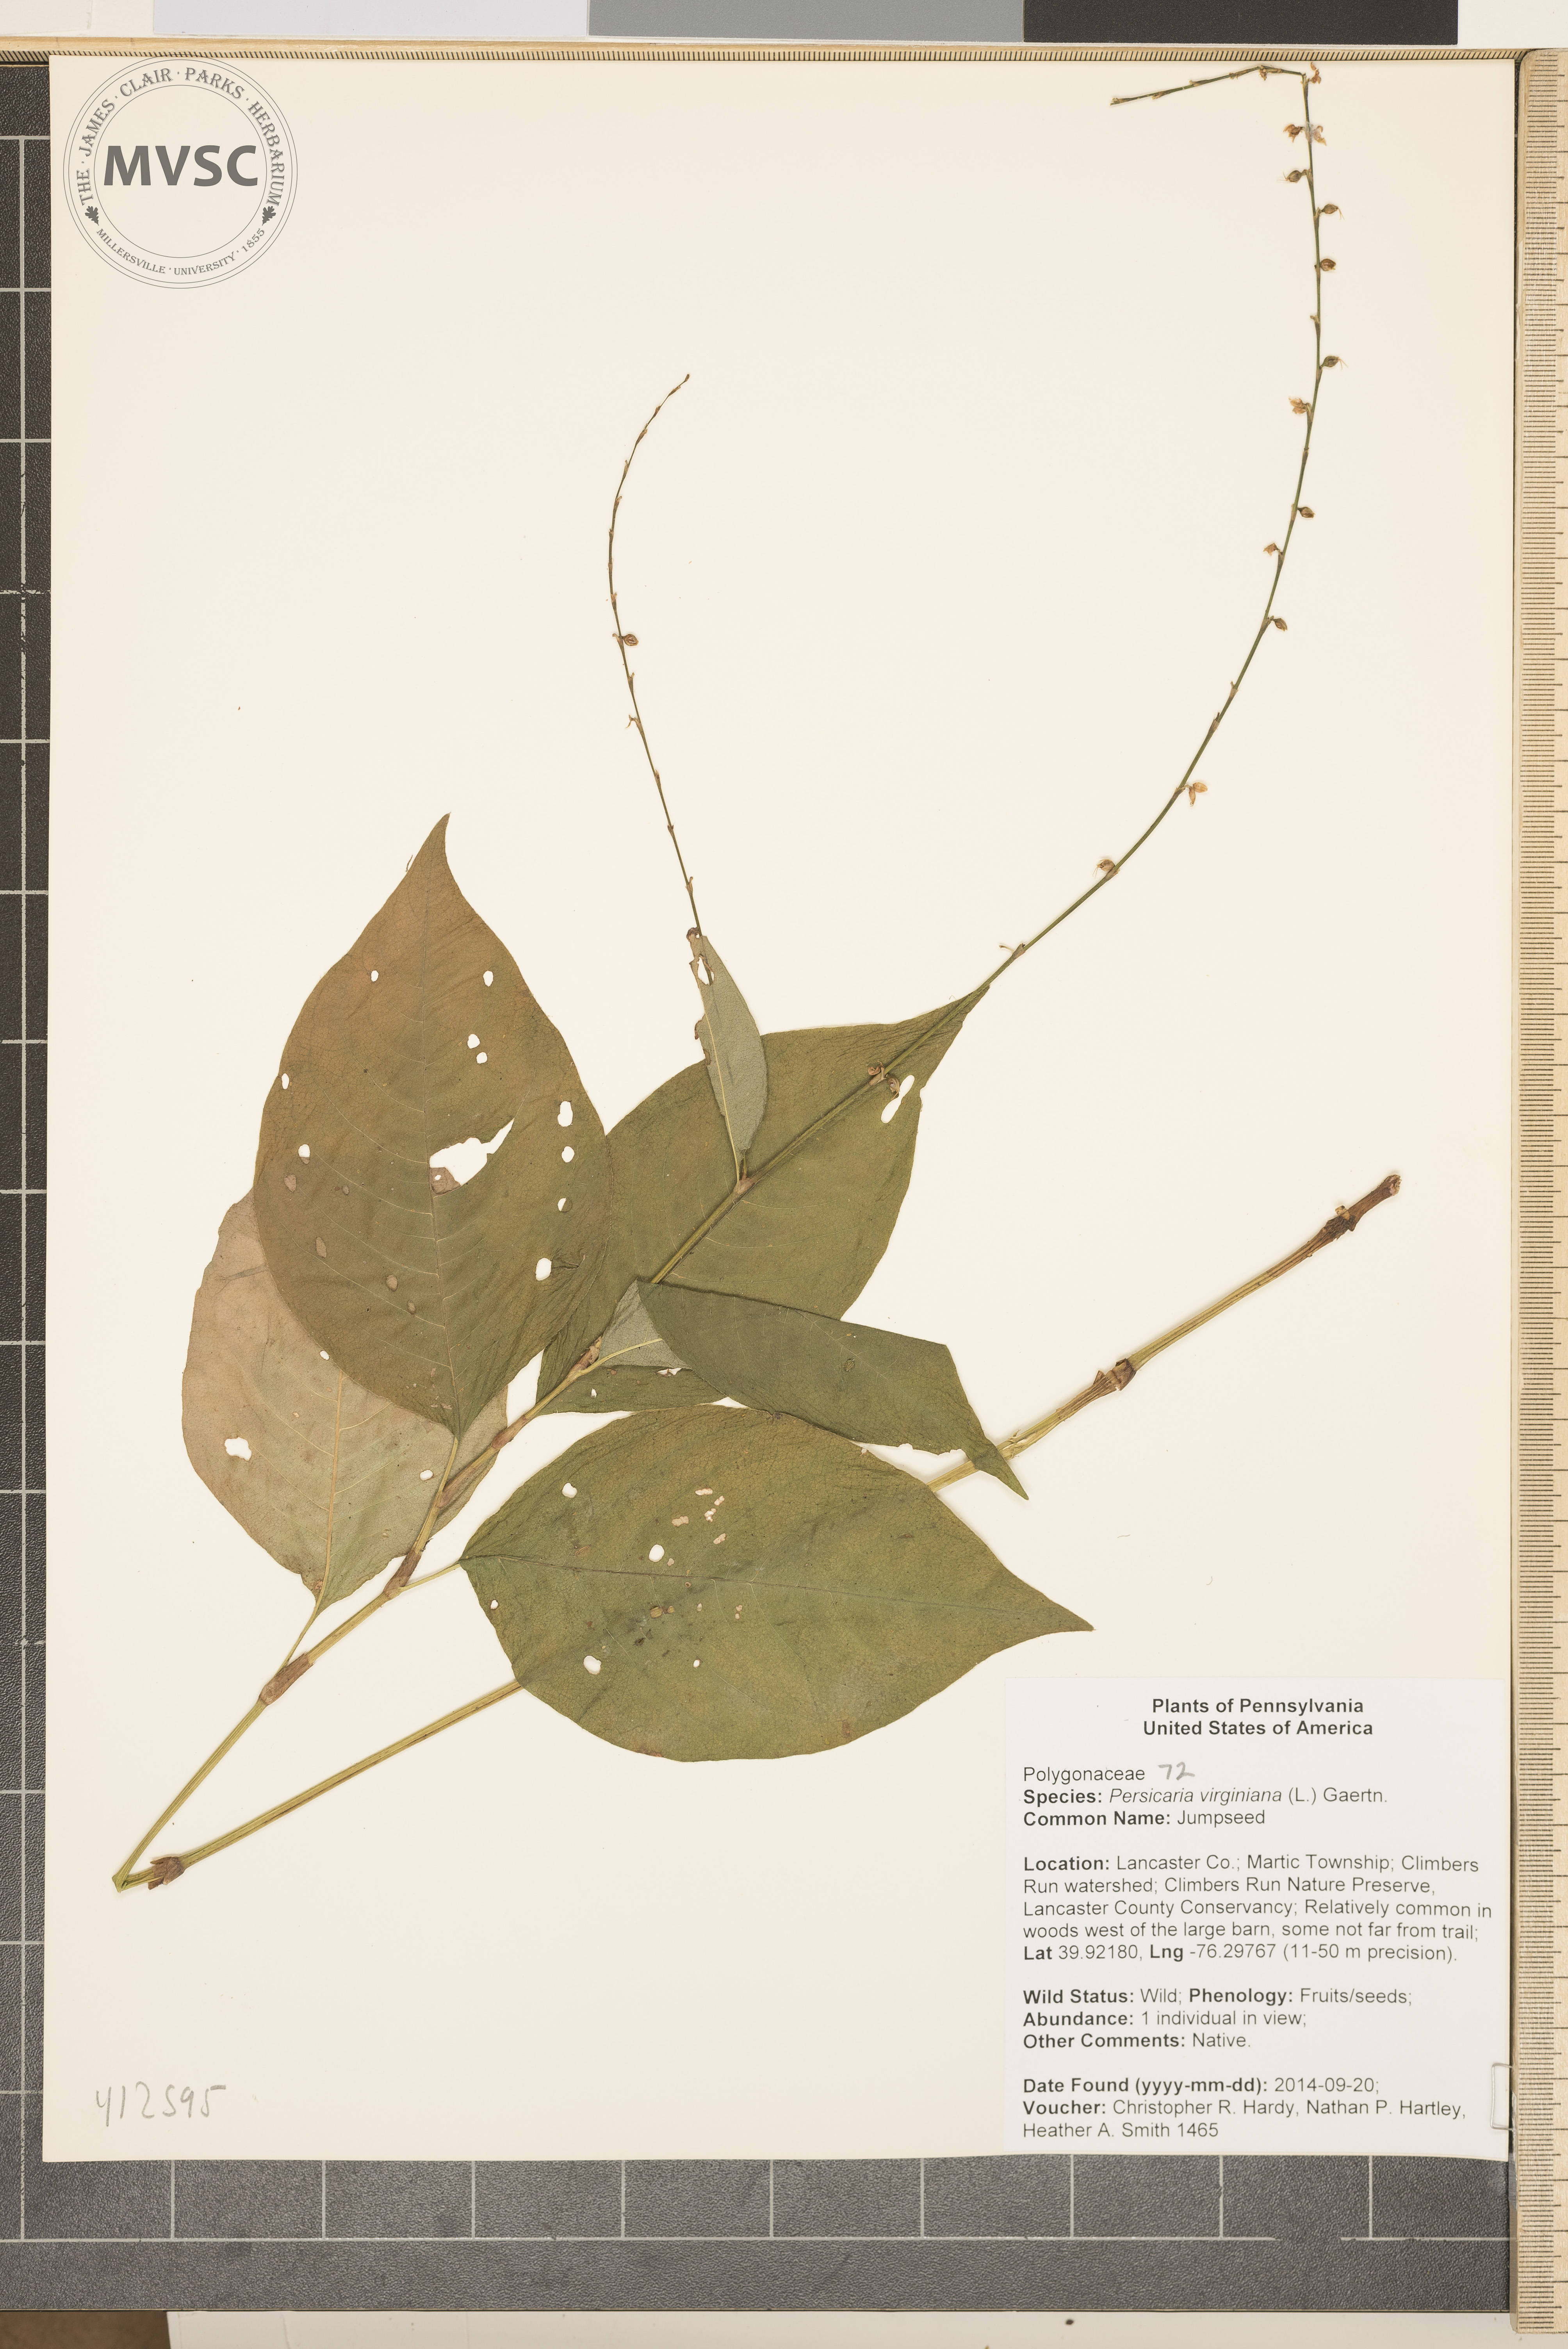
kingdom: Plantae
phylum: Tracheophyta
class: Magnoliopsida
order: Caryophyllales
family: Polygonaceae
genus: Persicaria
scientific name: Persicaria virginiana
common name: jumpseed
